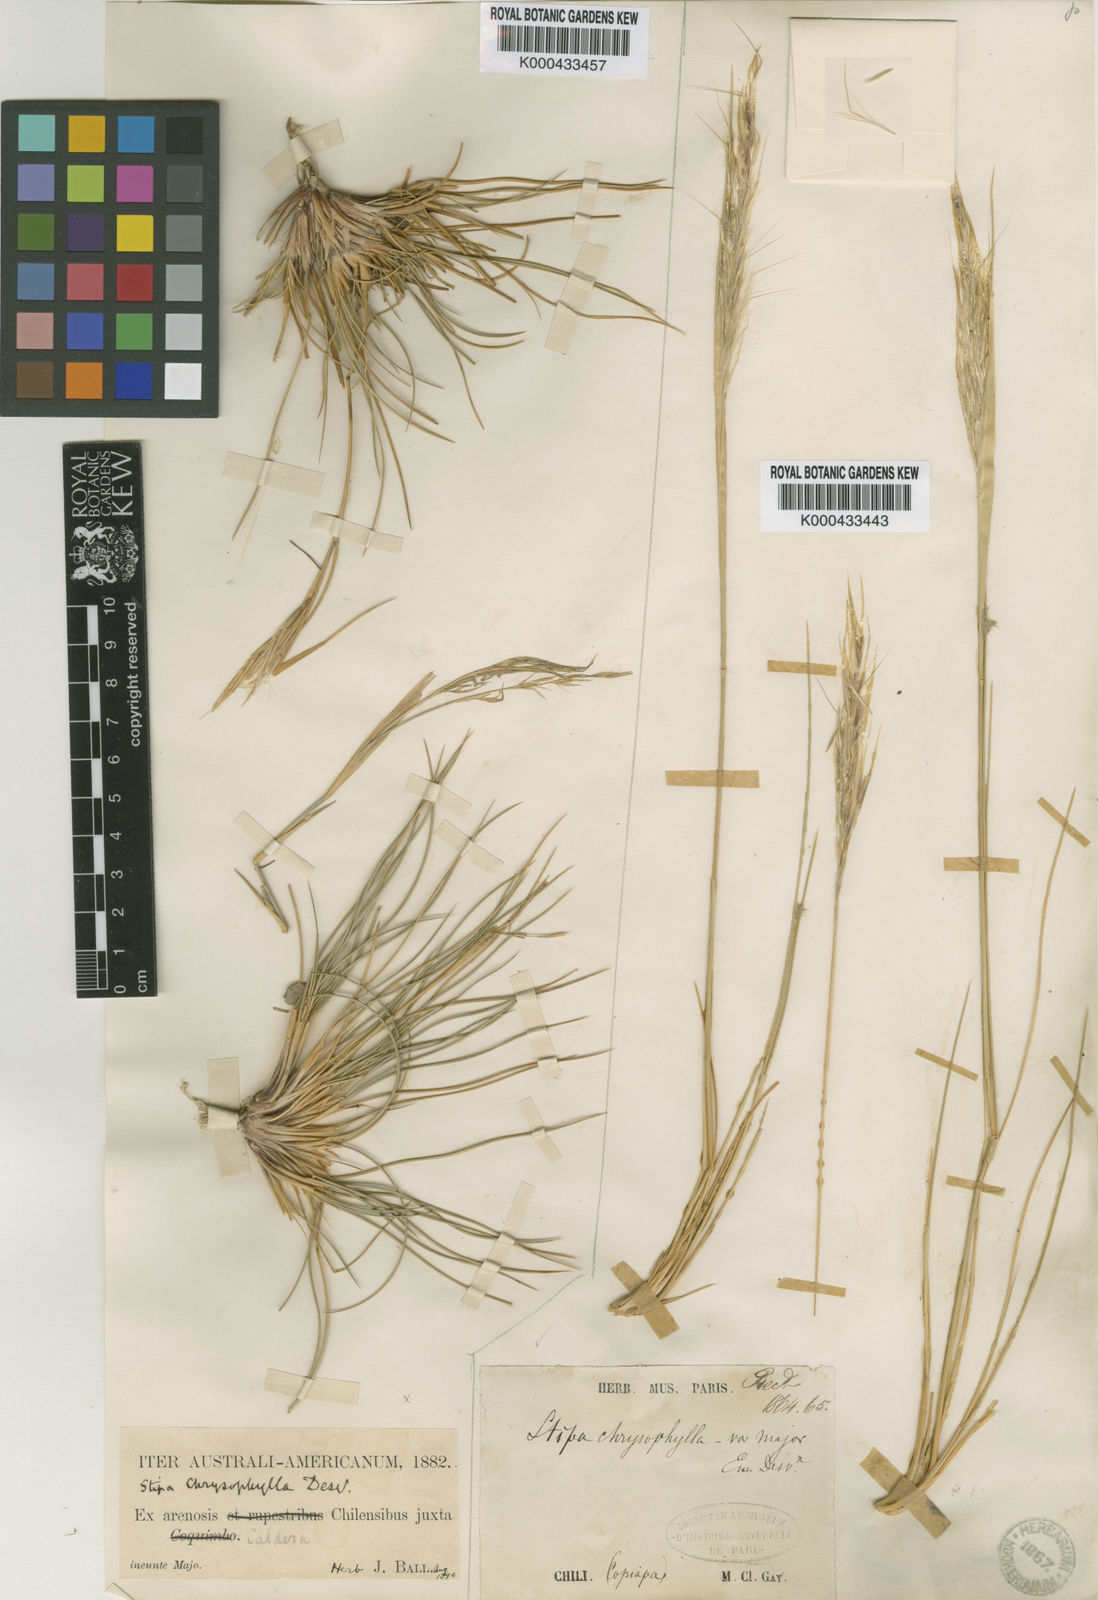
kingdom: Plantae
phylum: Tracheophyta
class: Liliopsida
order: Poales
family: Poaceae
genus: Pappostipa
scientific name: Pappostipa chrysophylla
